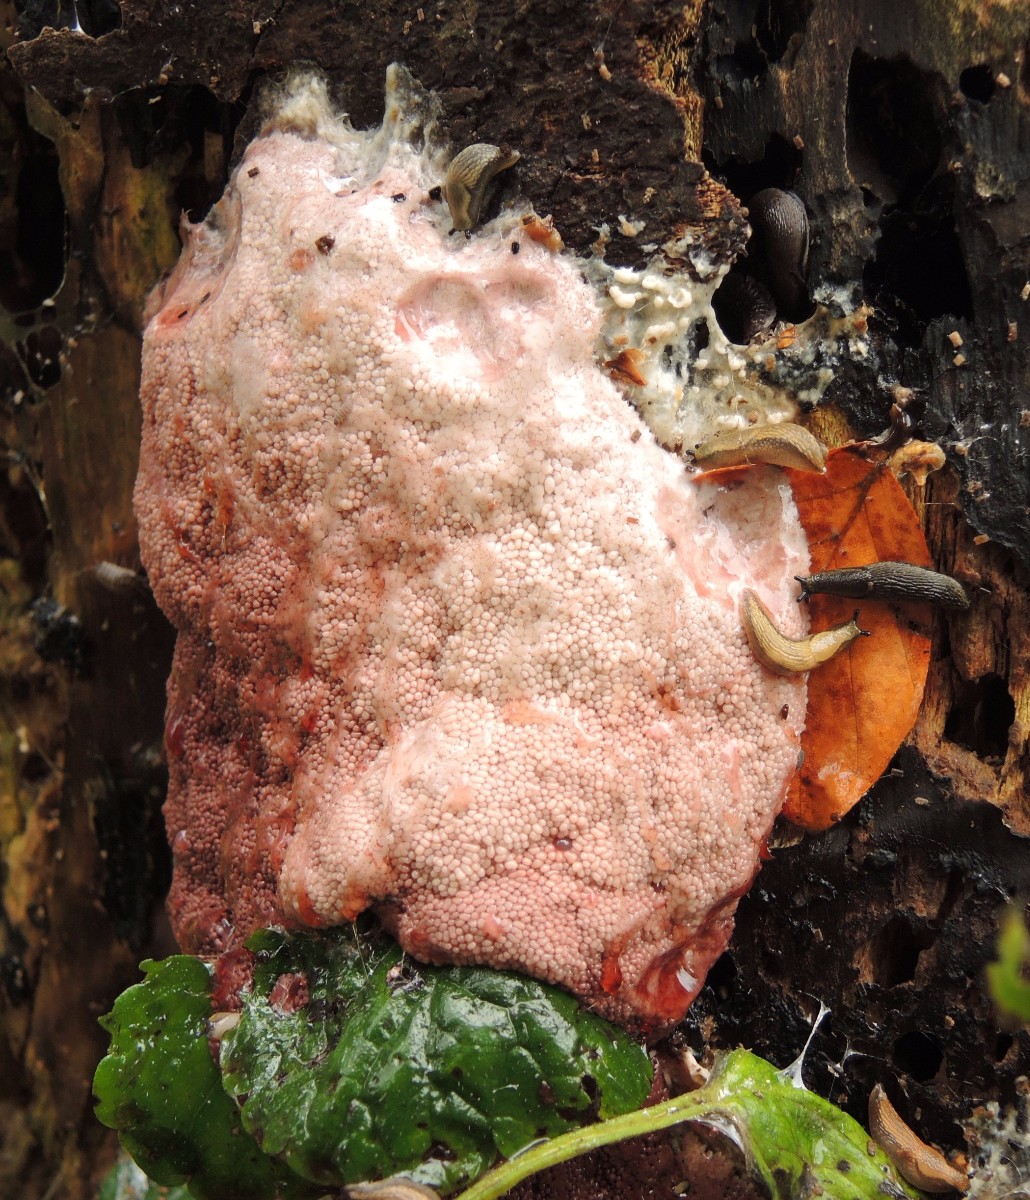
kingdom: Protozoa
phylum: Mycetozoa
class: Myxomycetes
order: Stemonitidales
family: Stemonitidaceae
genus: Brefeldia
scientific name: Brefeldia maxima
